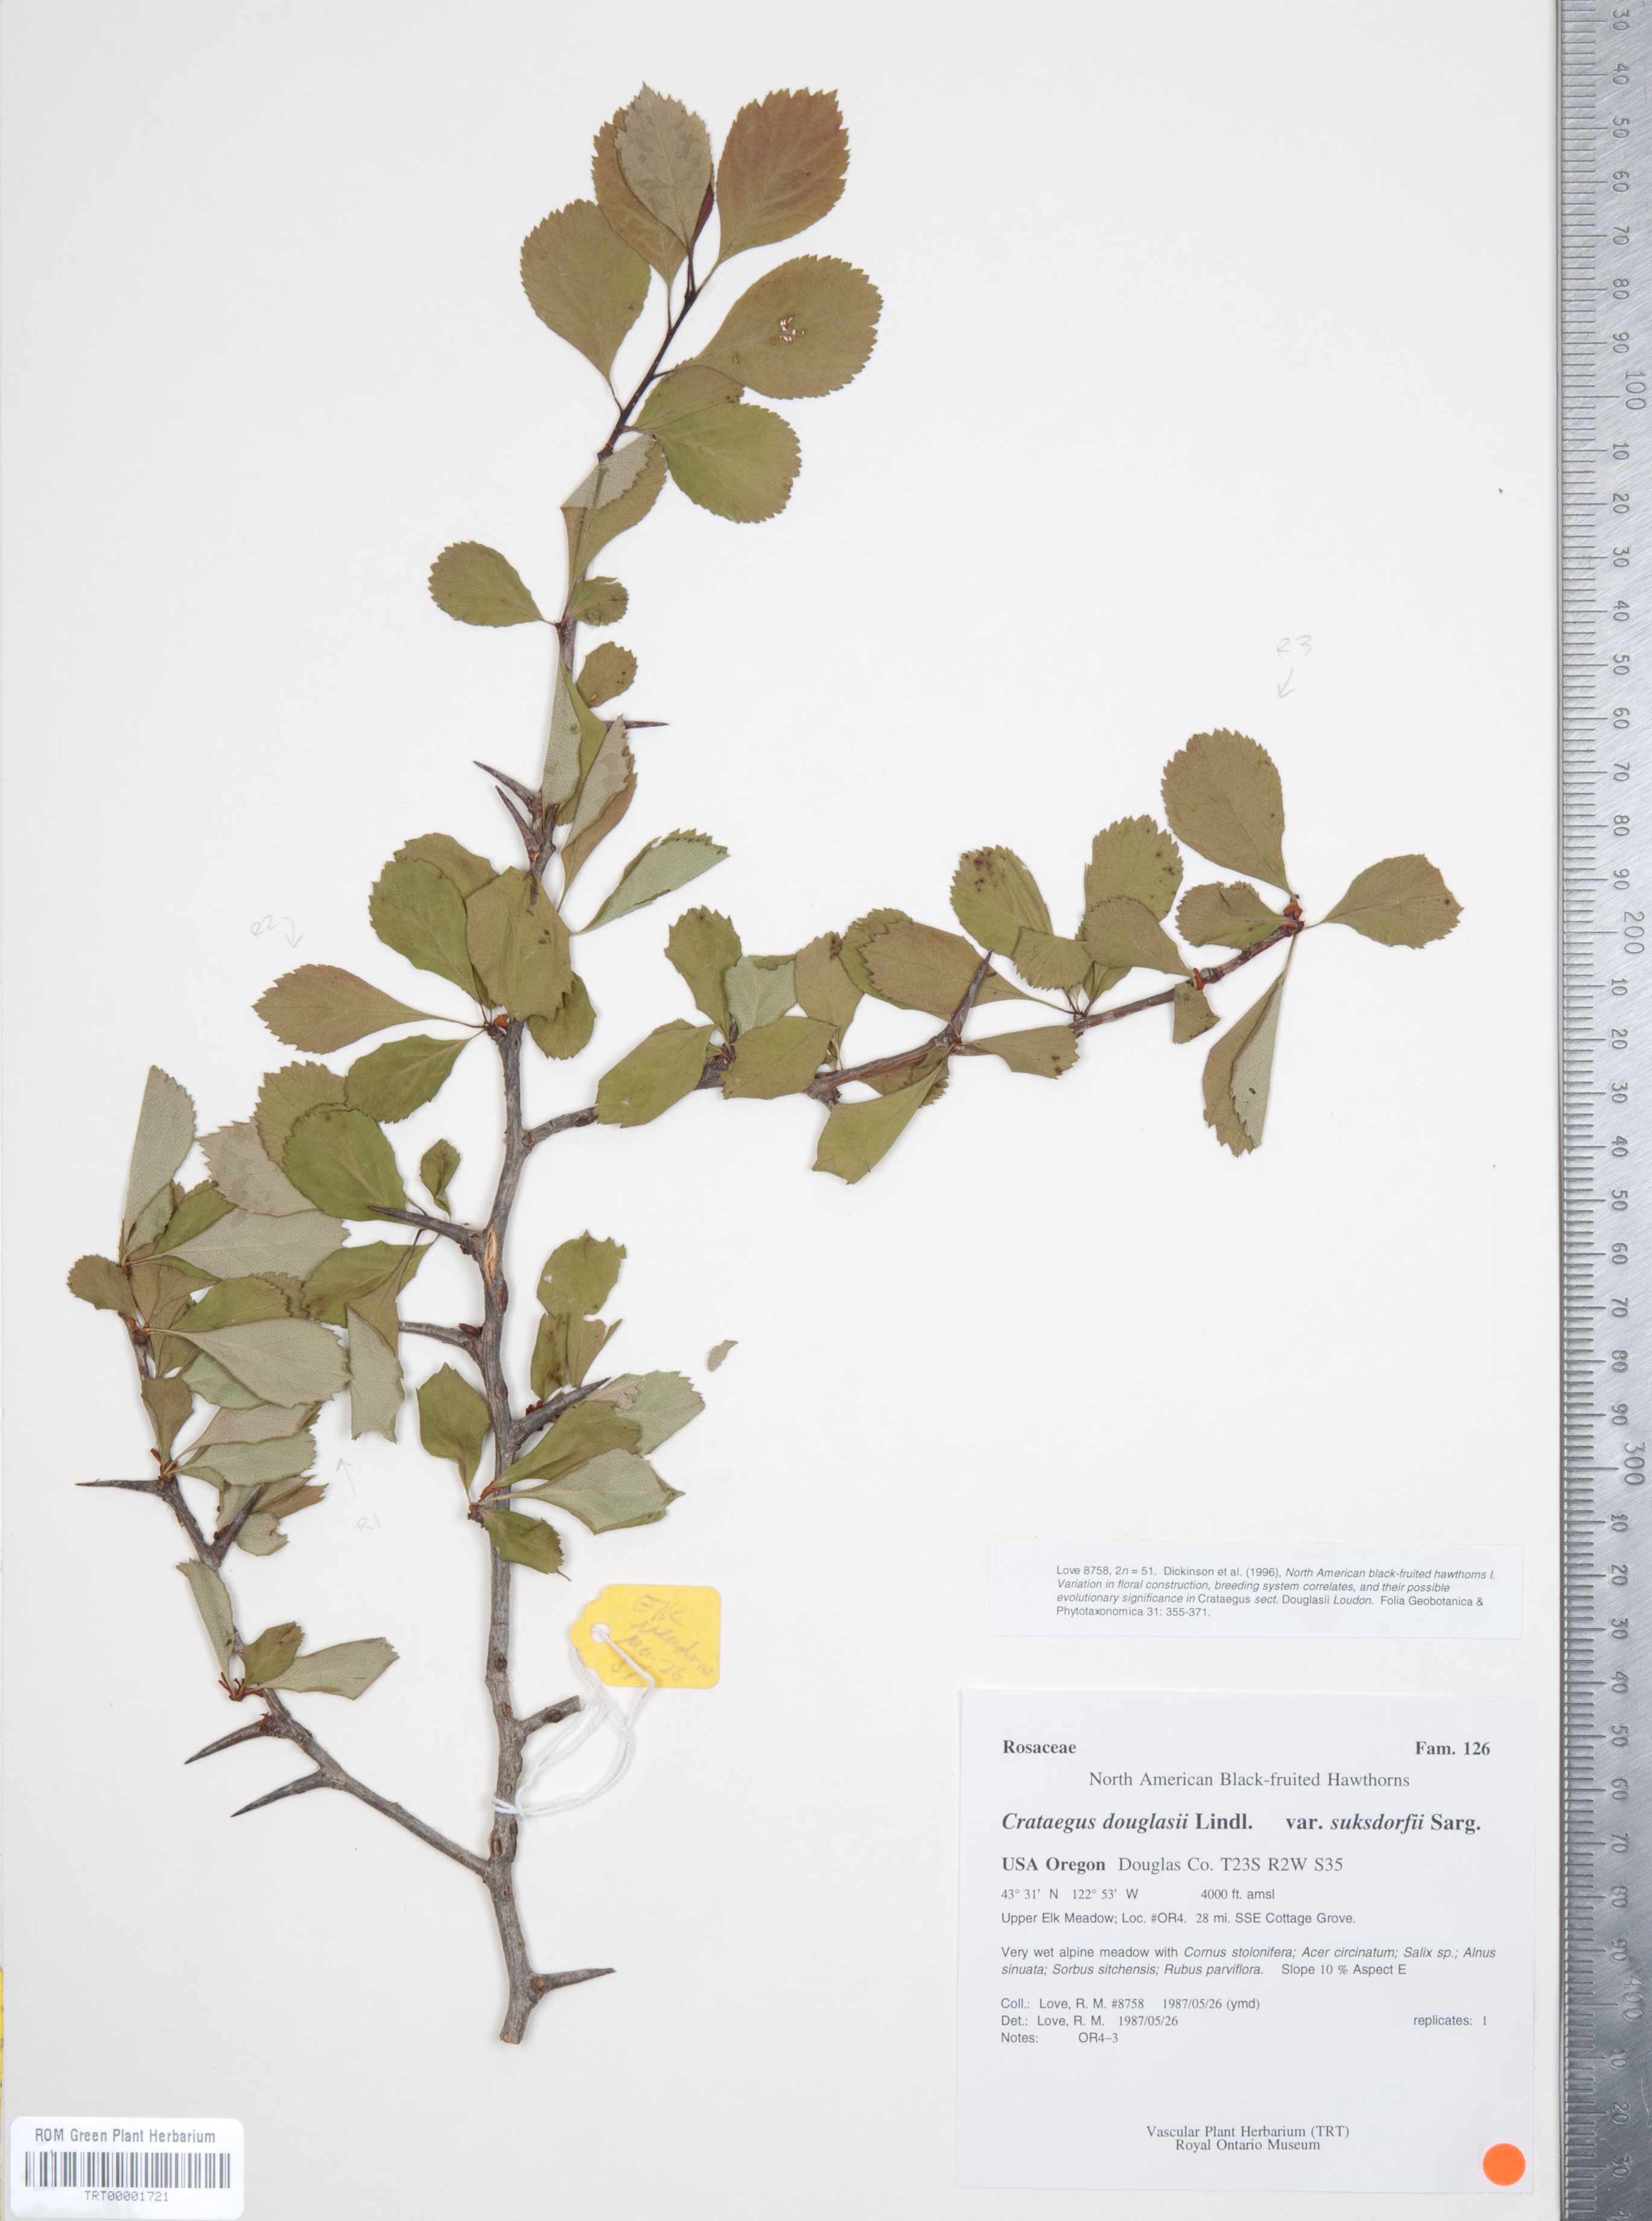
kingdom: Plantae
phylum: Tracheophyta
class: Magnoliopsida
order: Rosales
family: Rosaceae
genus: Crataegus
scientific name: Crataegus gaylussacia
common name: Huckleberry hawthorn
